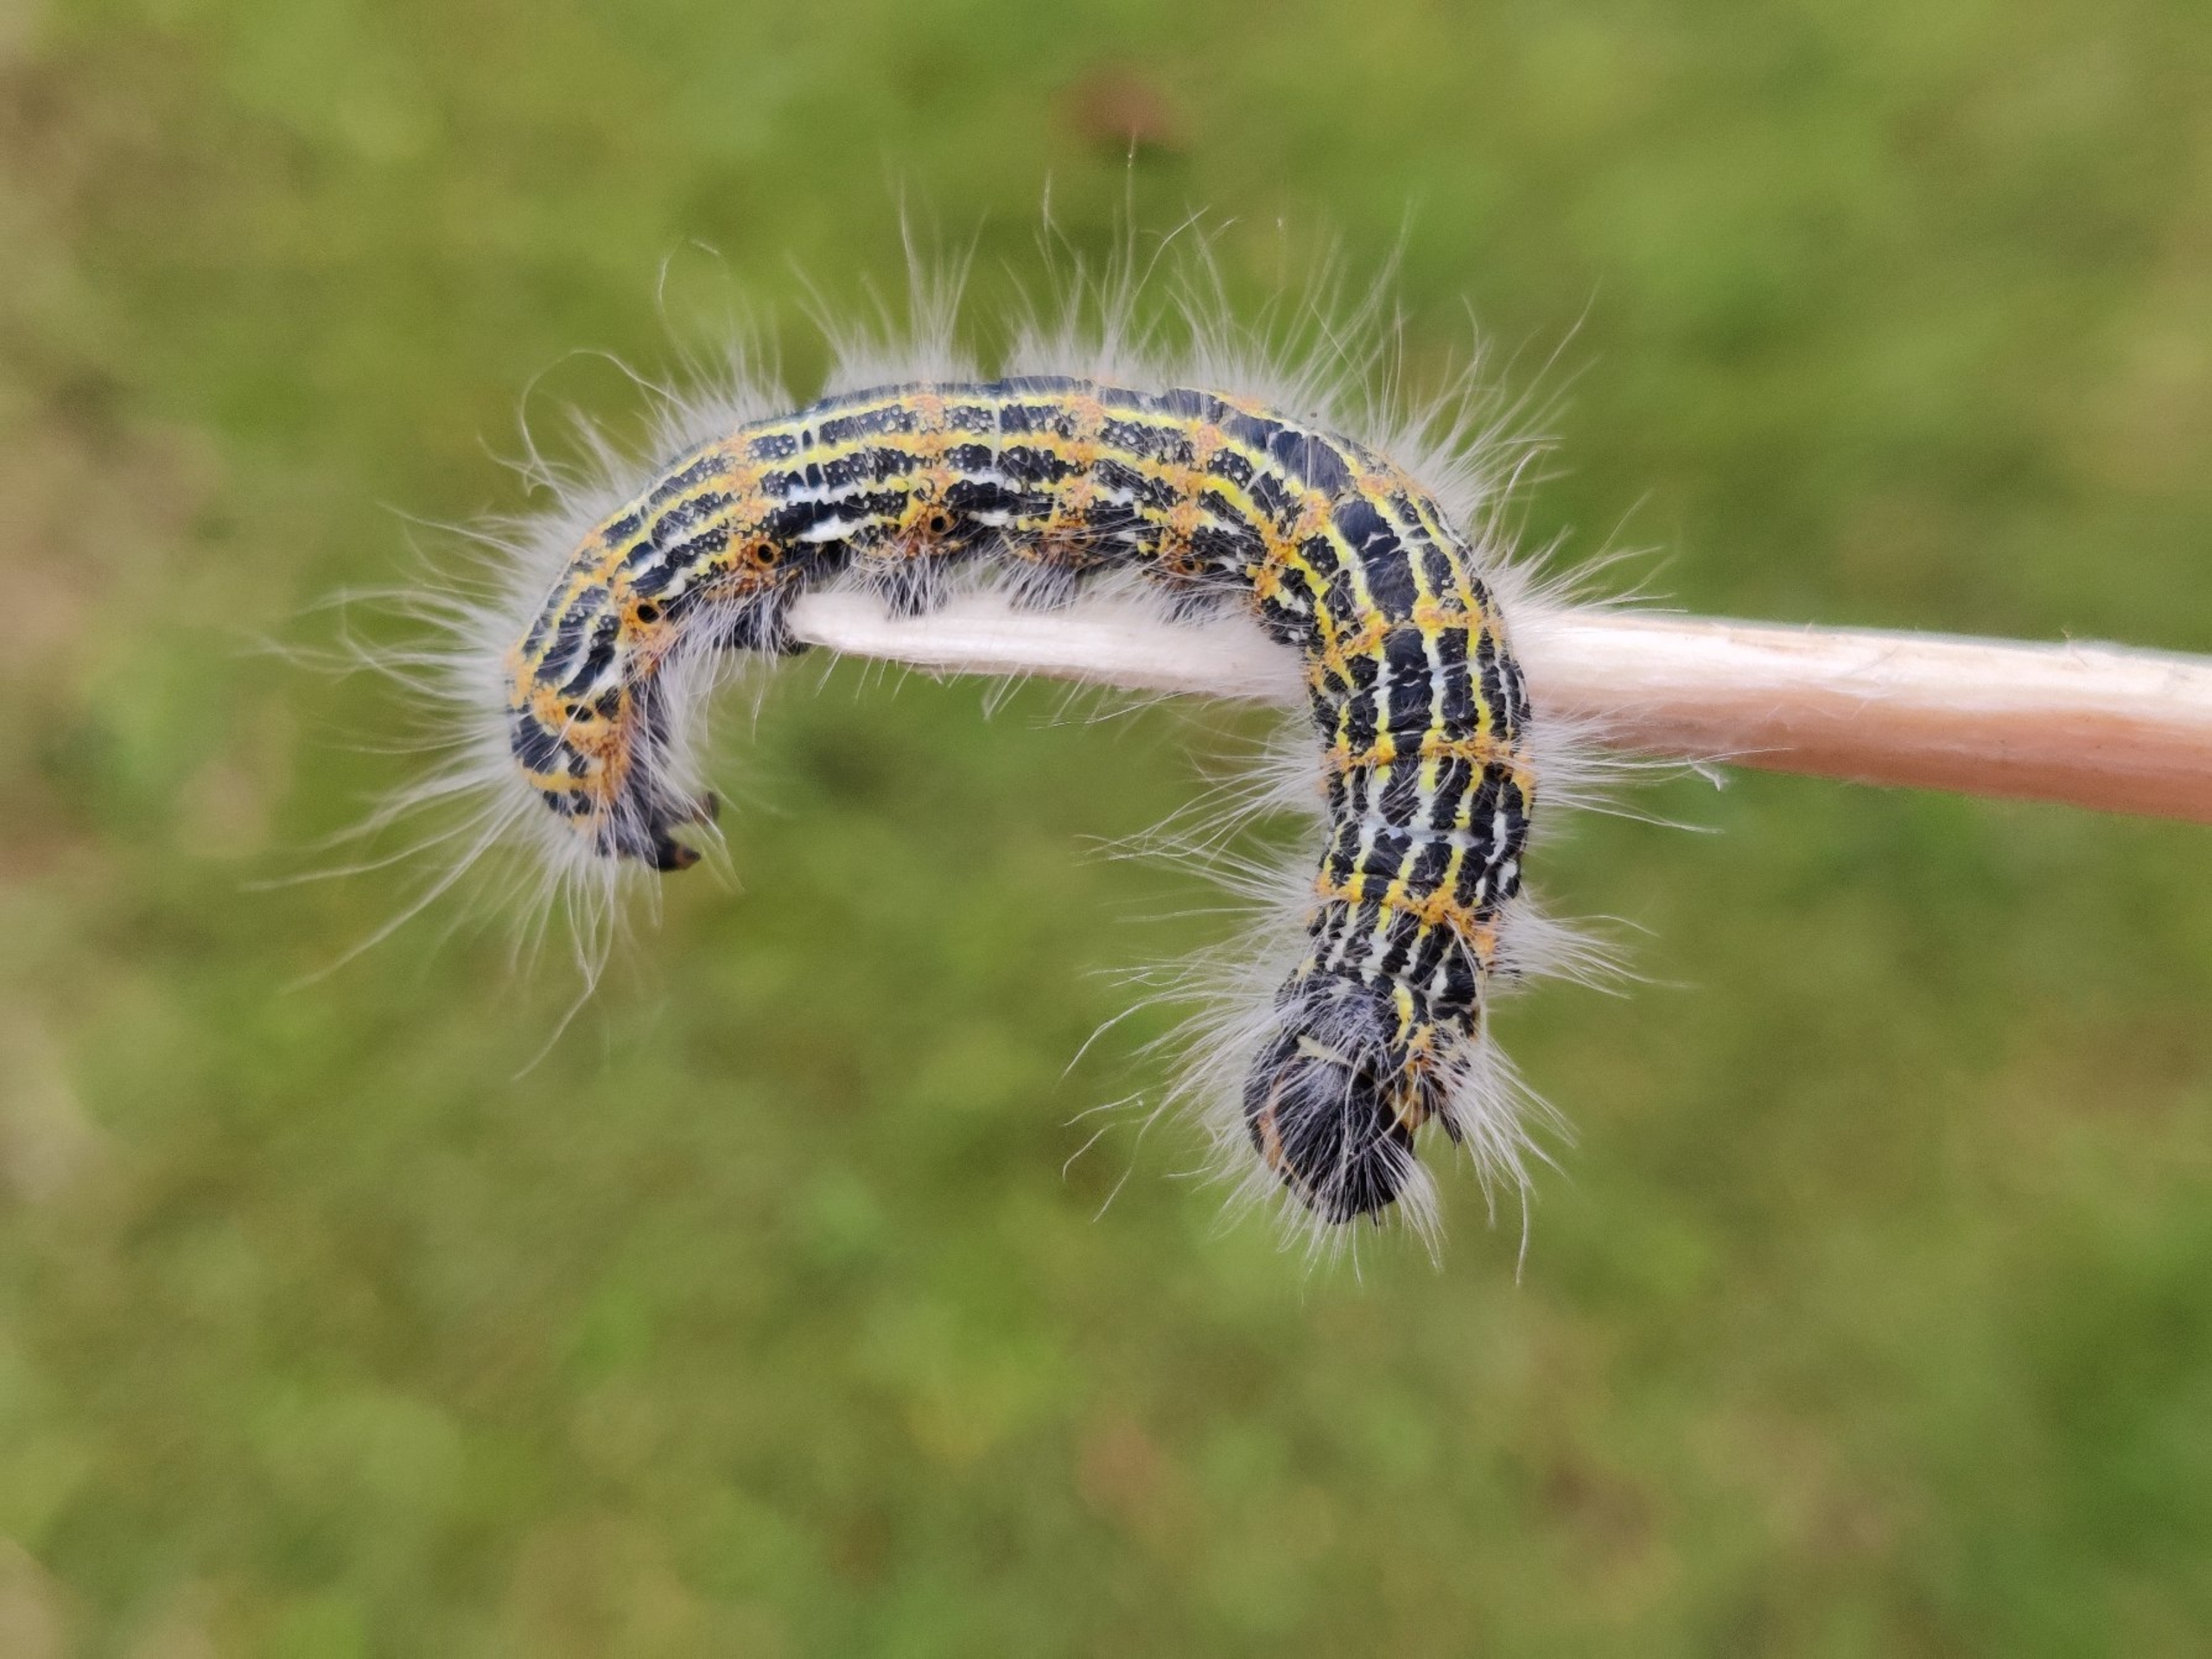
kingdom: Animalia
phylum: Arthropoda
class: Insecta
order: Lepidoptera
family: Notodontidae
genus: Phalera
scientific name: Phalera bucephala
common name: Måneplet
